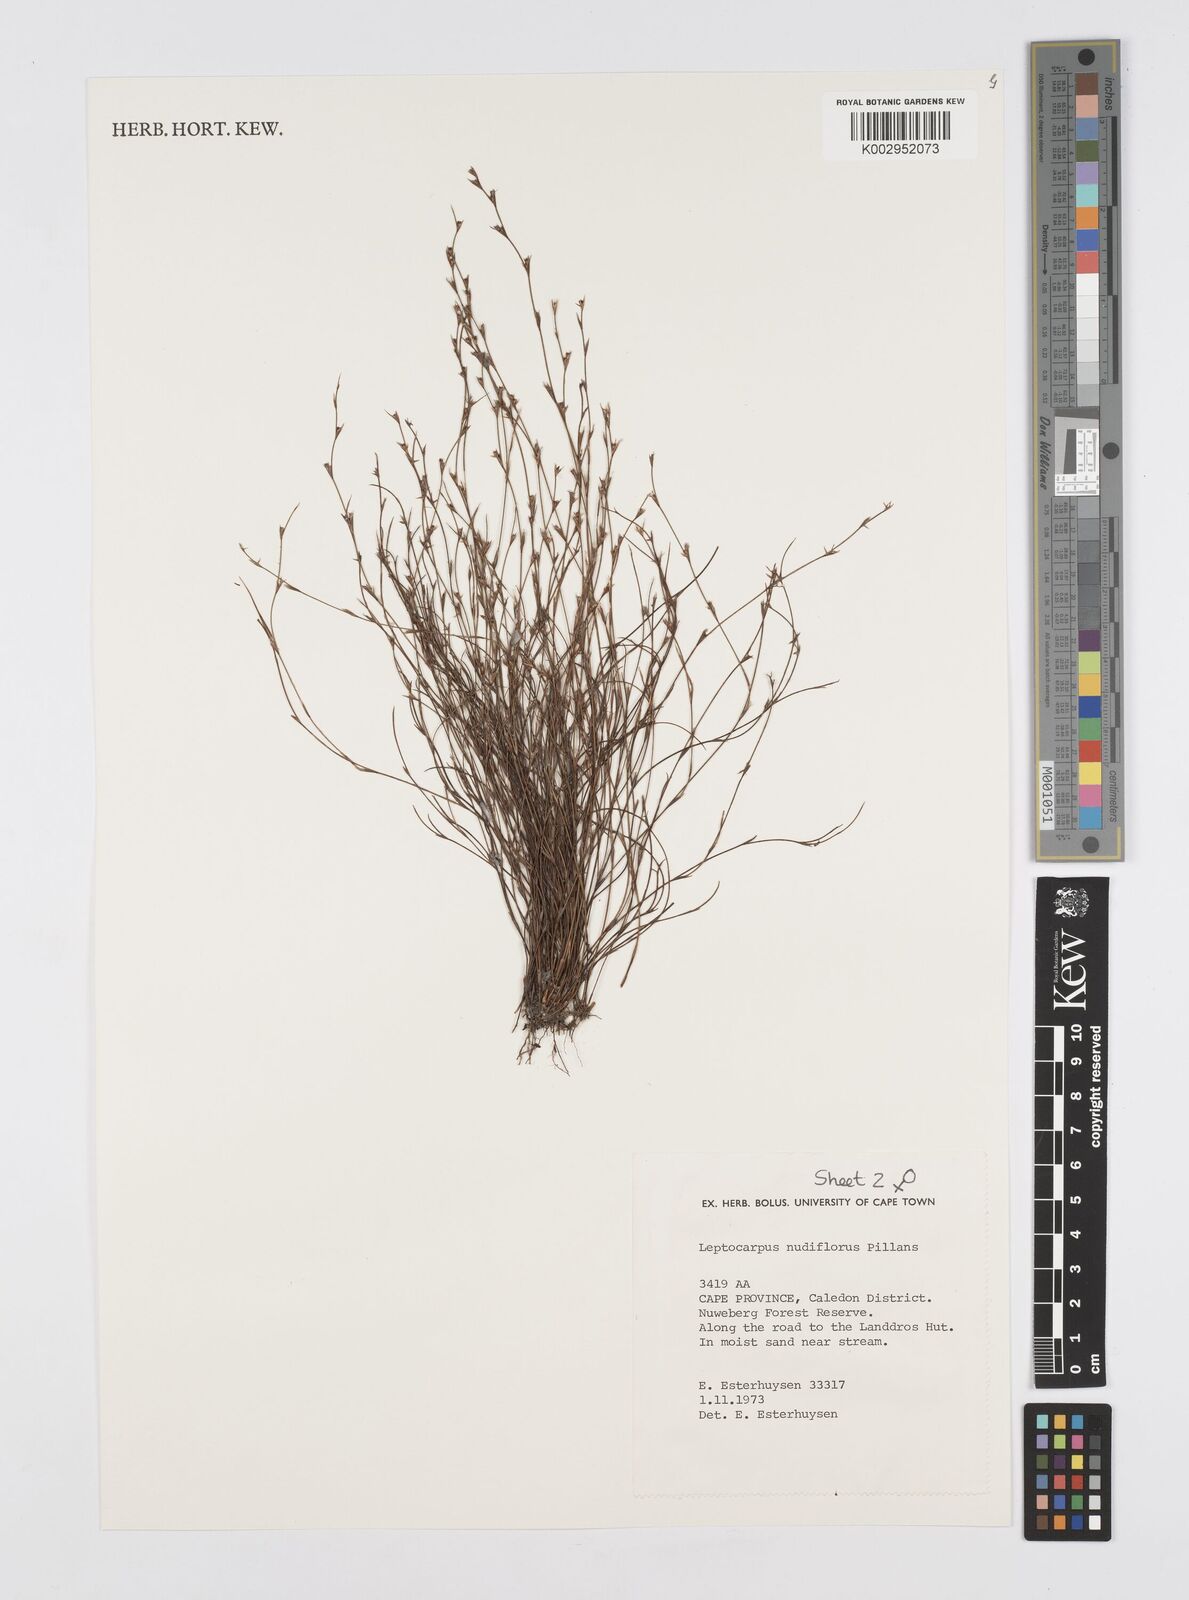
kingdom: Plantae
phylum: Tracheophyta
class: Liliopsida
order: Poales
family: Restionaceae
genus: Restio
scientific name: Restio nudiflorus
